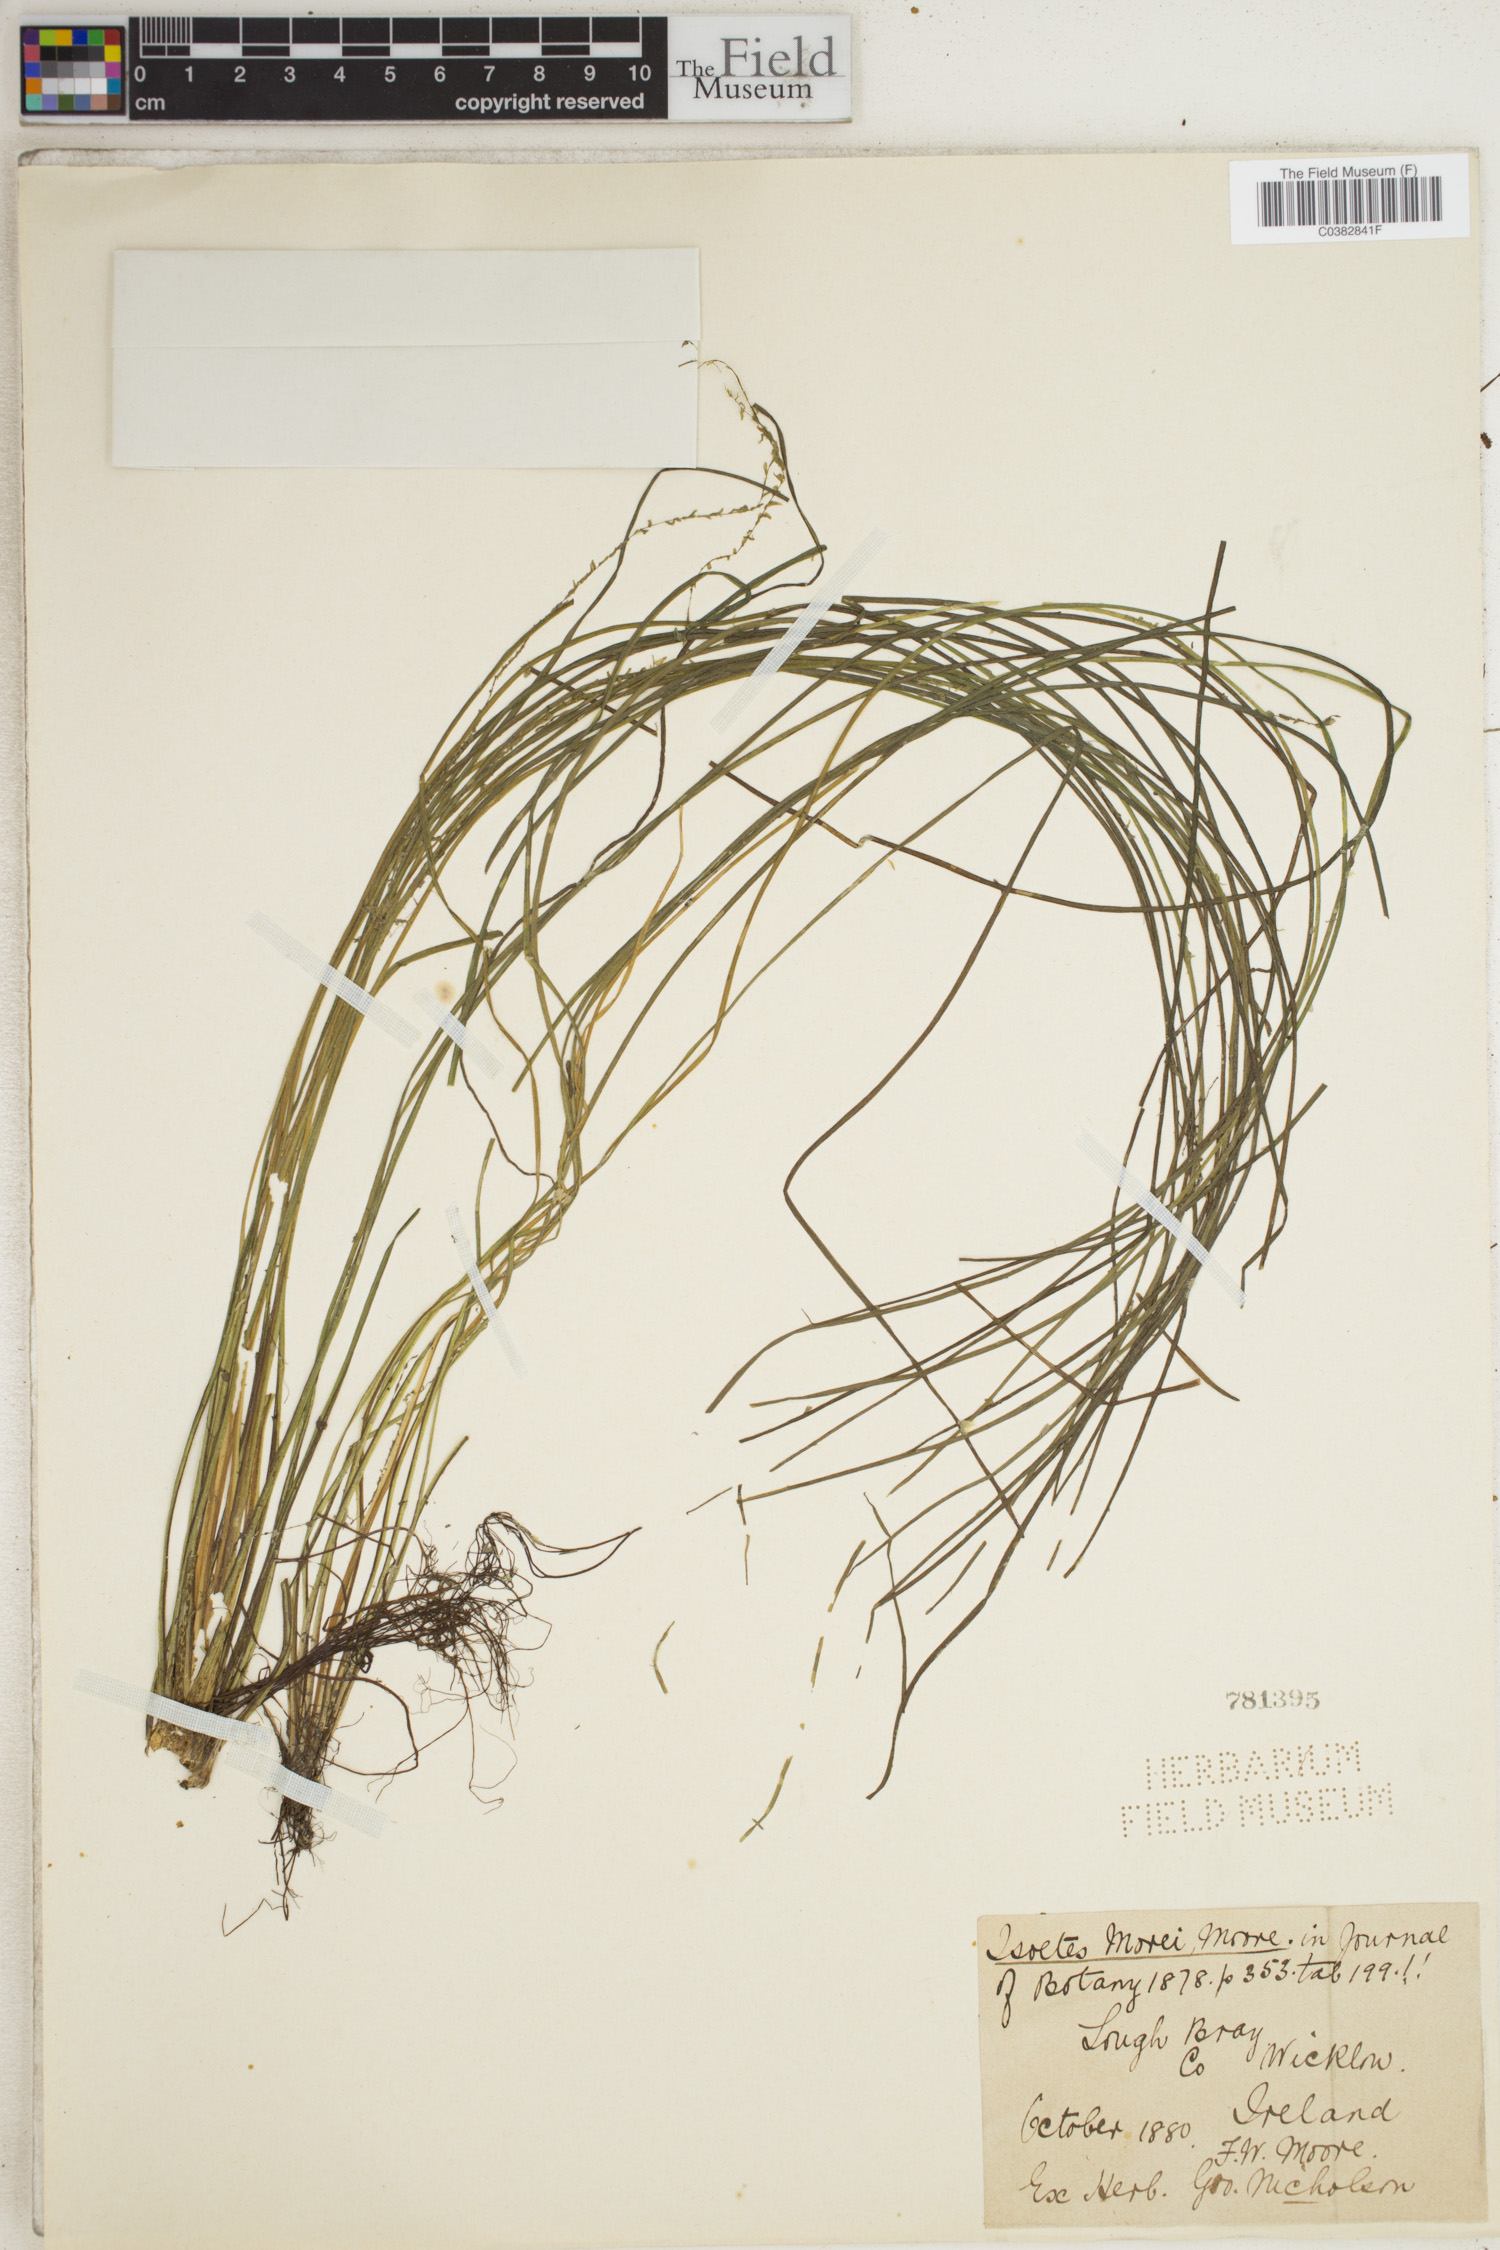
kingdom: Plantae
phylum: Tracheophyta
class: Lycopodiopsida
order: Isoetales
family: Isoetaceae
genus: Isoetes
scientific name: Isoetes
